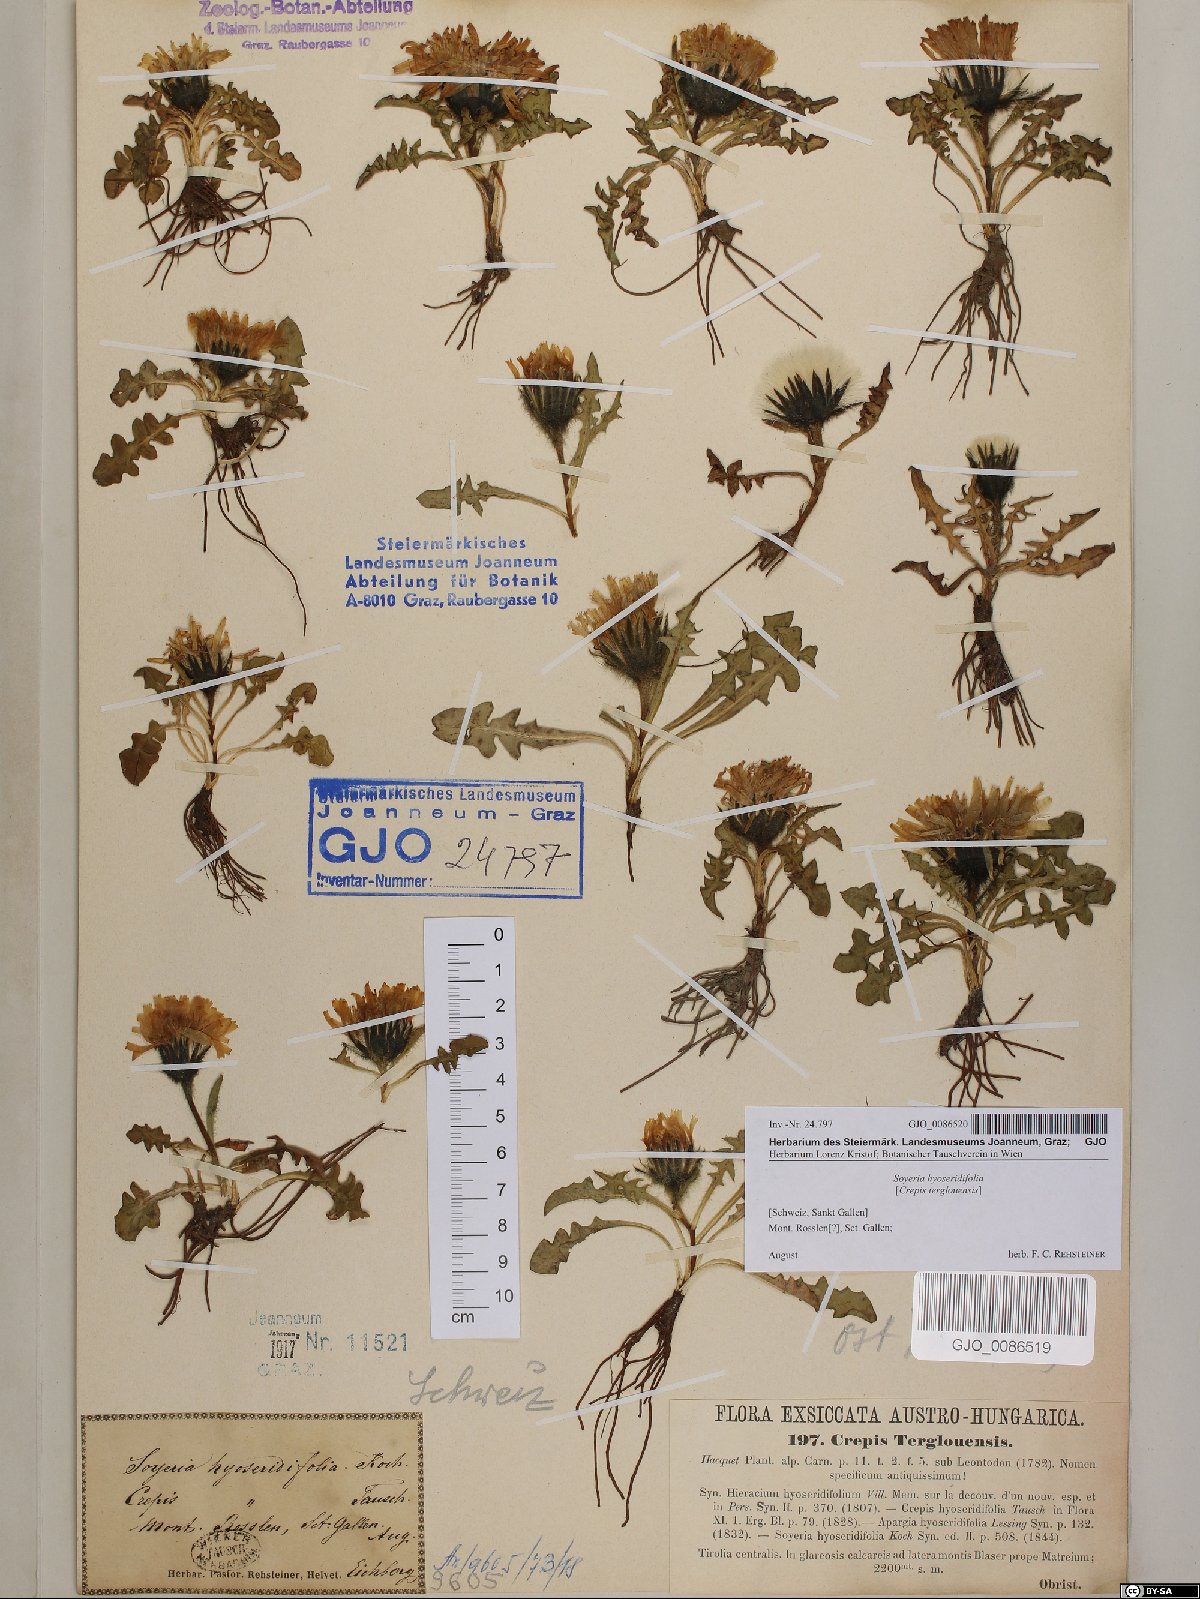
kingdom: Plantae
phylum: Tracheophyta
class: Magnoliopsida
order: Asterales
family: Asteraceae
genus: Crepis
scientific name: Crepis terglouensis
